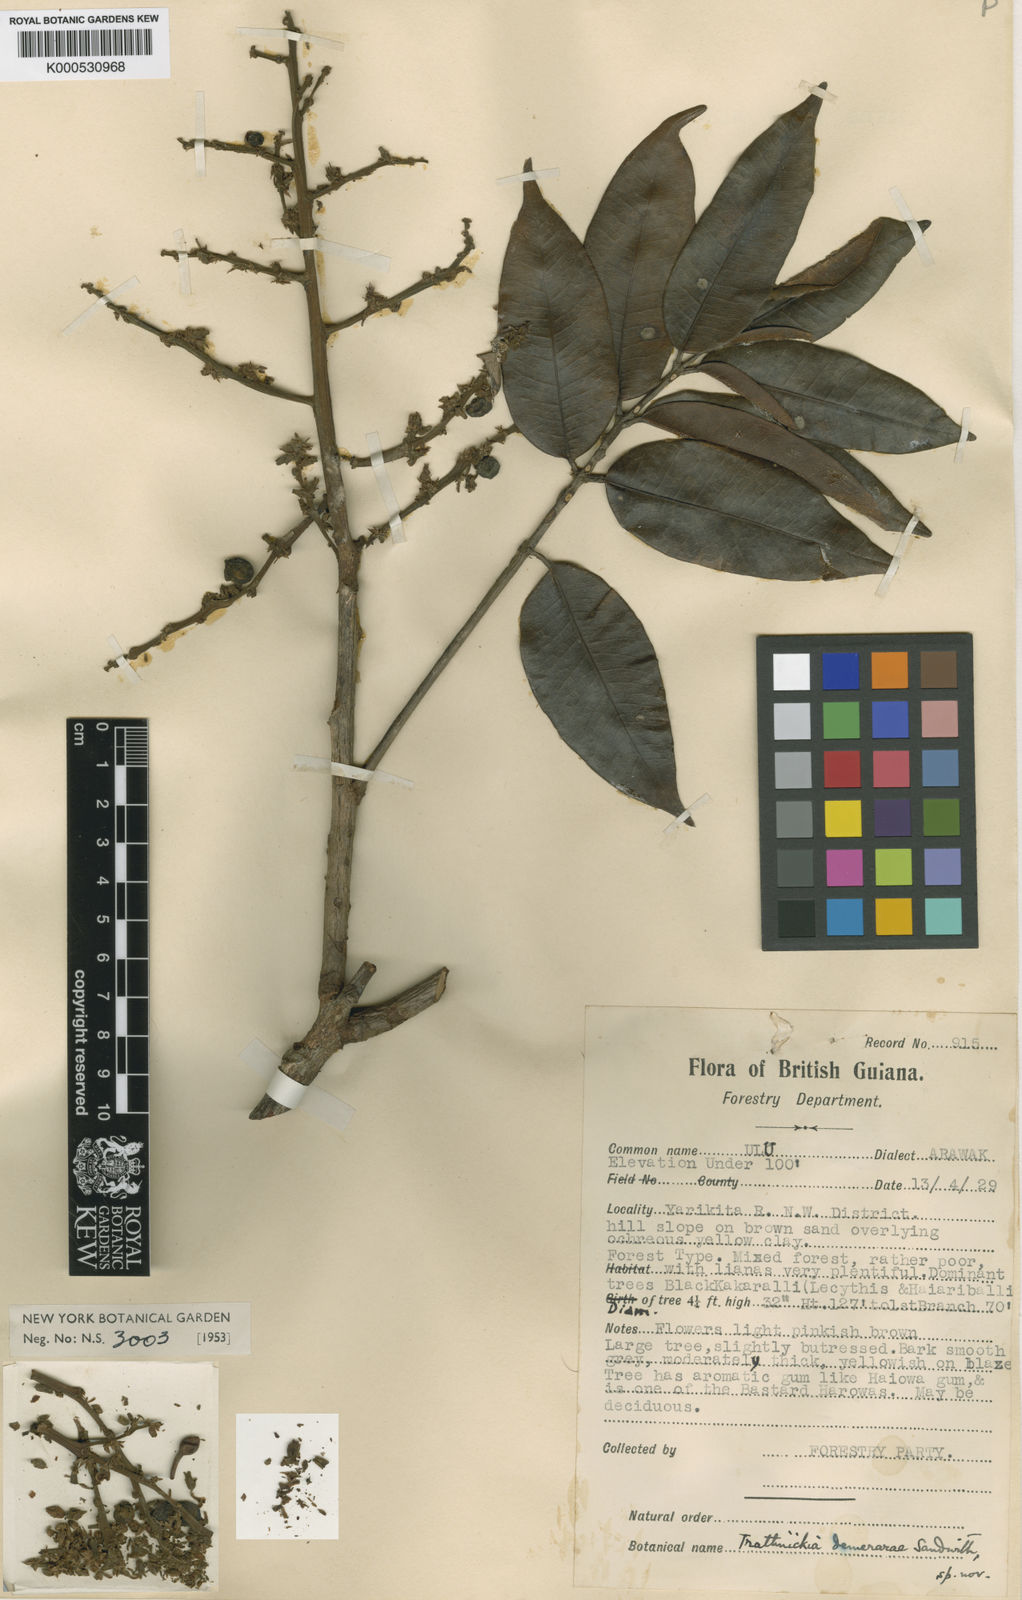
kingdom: Plantae
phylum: Tracheophyta
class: Magnoliopsida
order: Sapindales
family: Burseraceae
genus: Trattinnickia
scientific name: Trattinnickia demerarae
